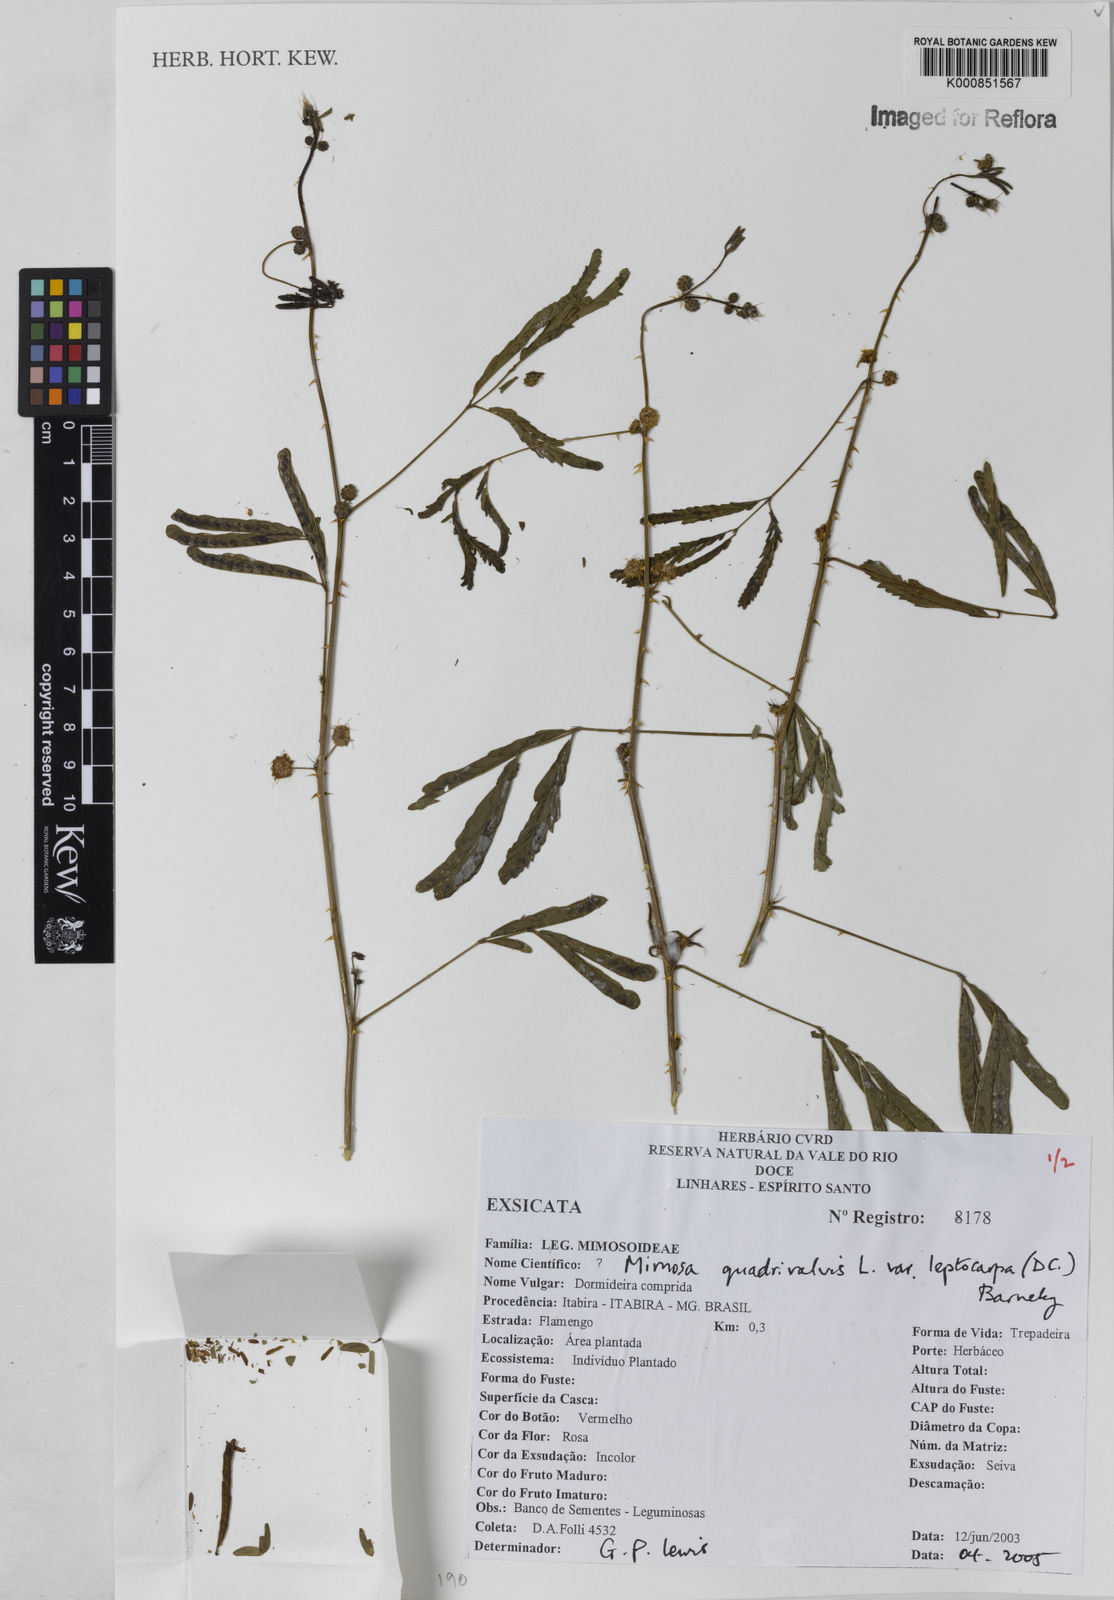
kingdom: Plantae
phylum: Tracheophyta
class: Magnoliopsida
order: Fabales
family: Fabaceae
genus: Mimosa
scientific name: Mimosa candollei
